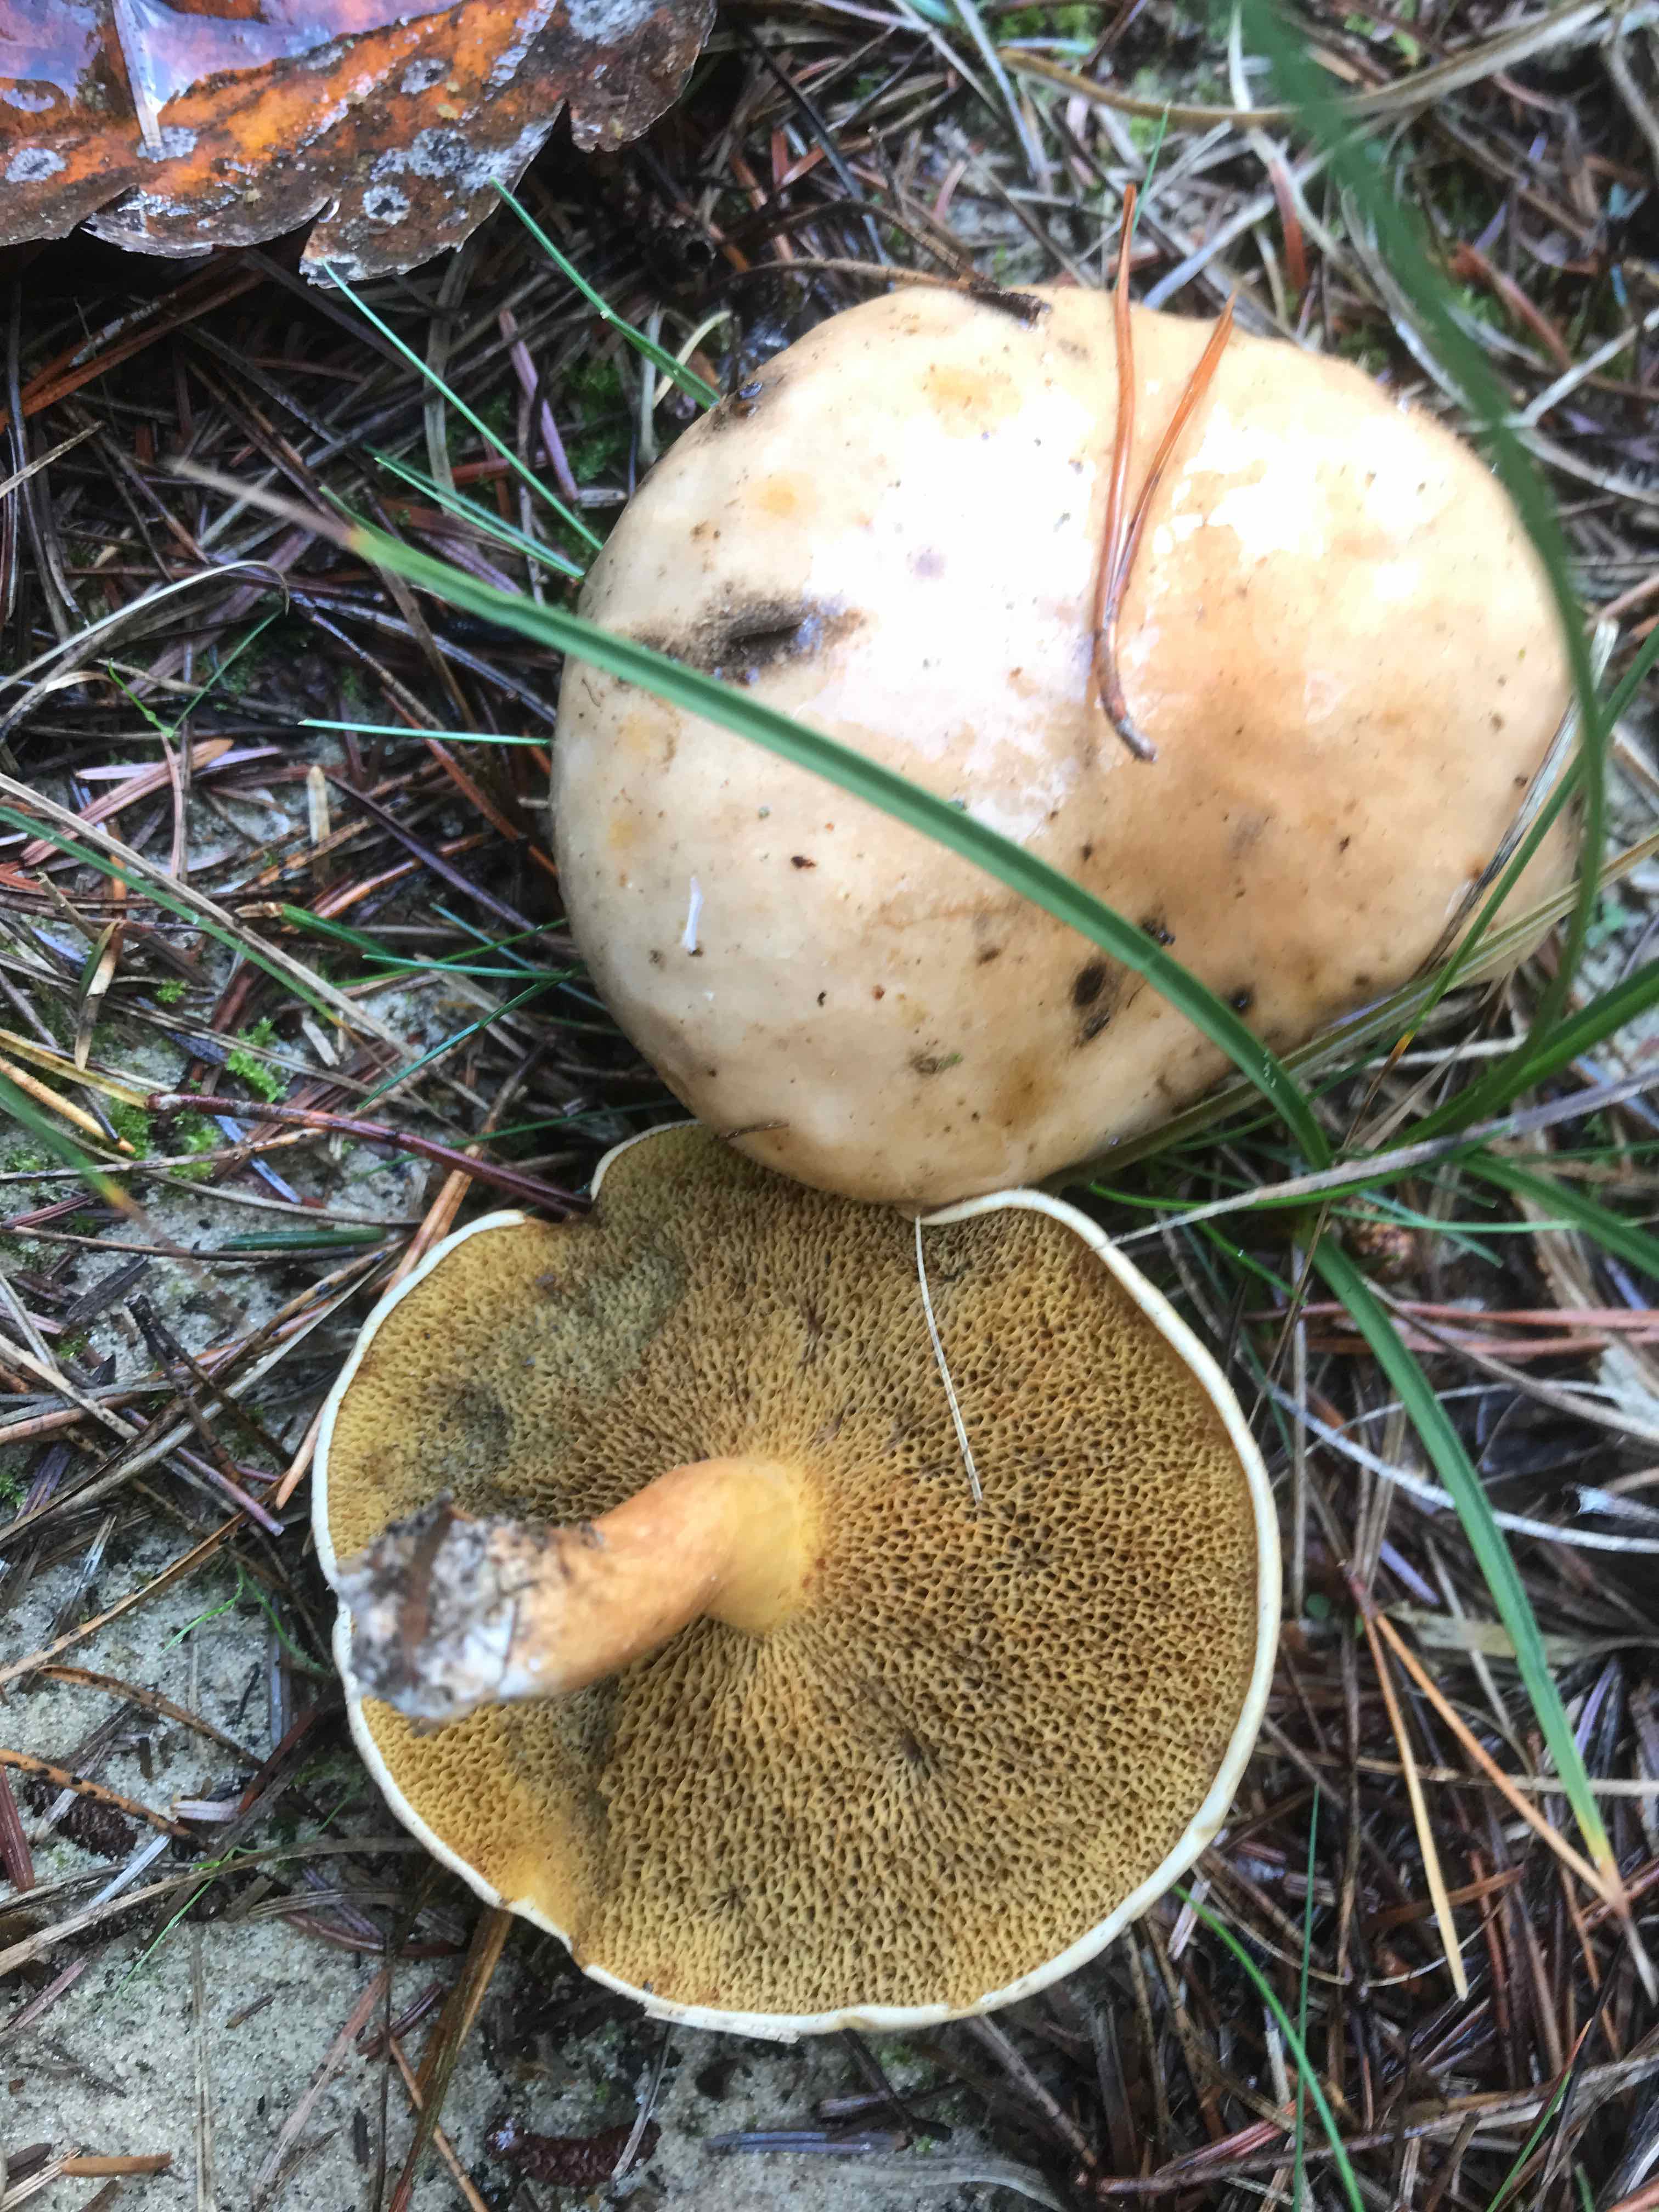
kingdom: Fungi
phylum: Basidiomycota
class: Agaricomycetes
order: Boletales
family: Suillaceae
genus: Suillus
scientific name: Suillus bovinus
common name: grovporet slimrørhat
